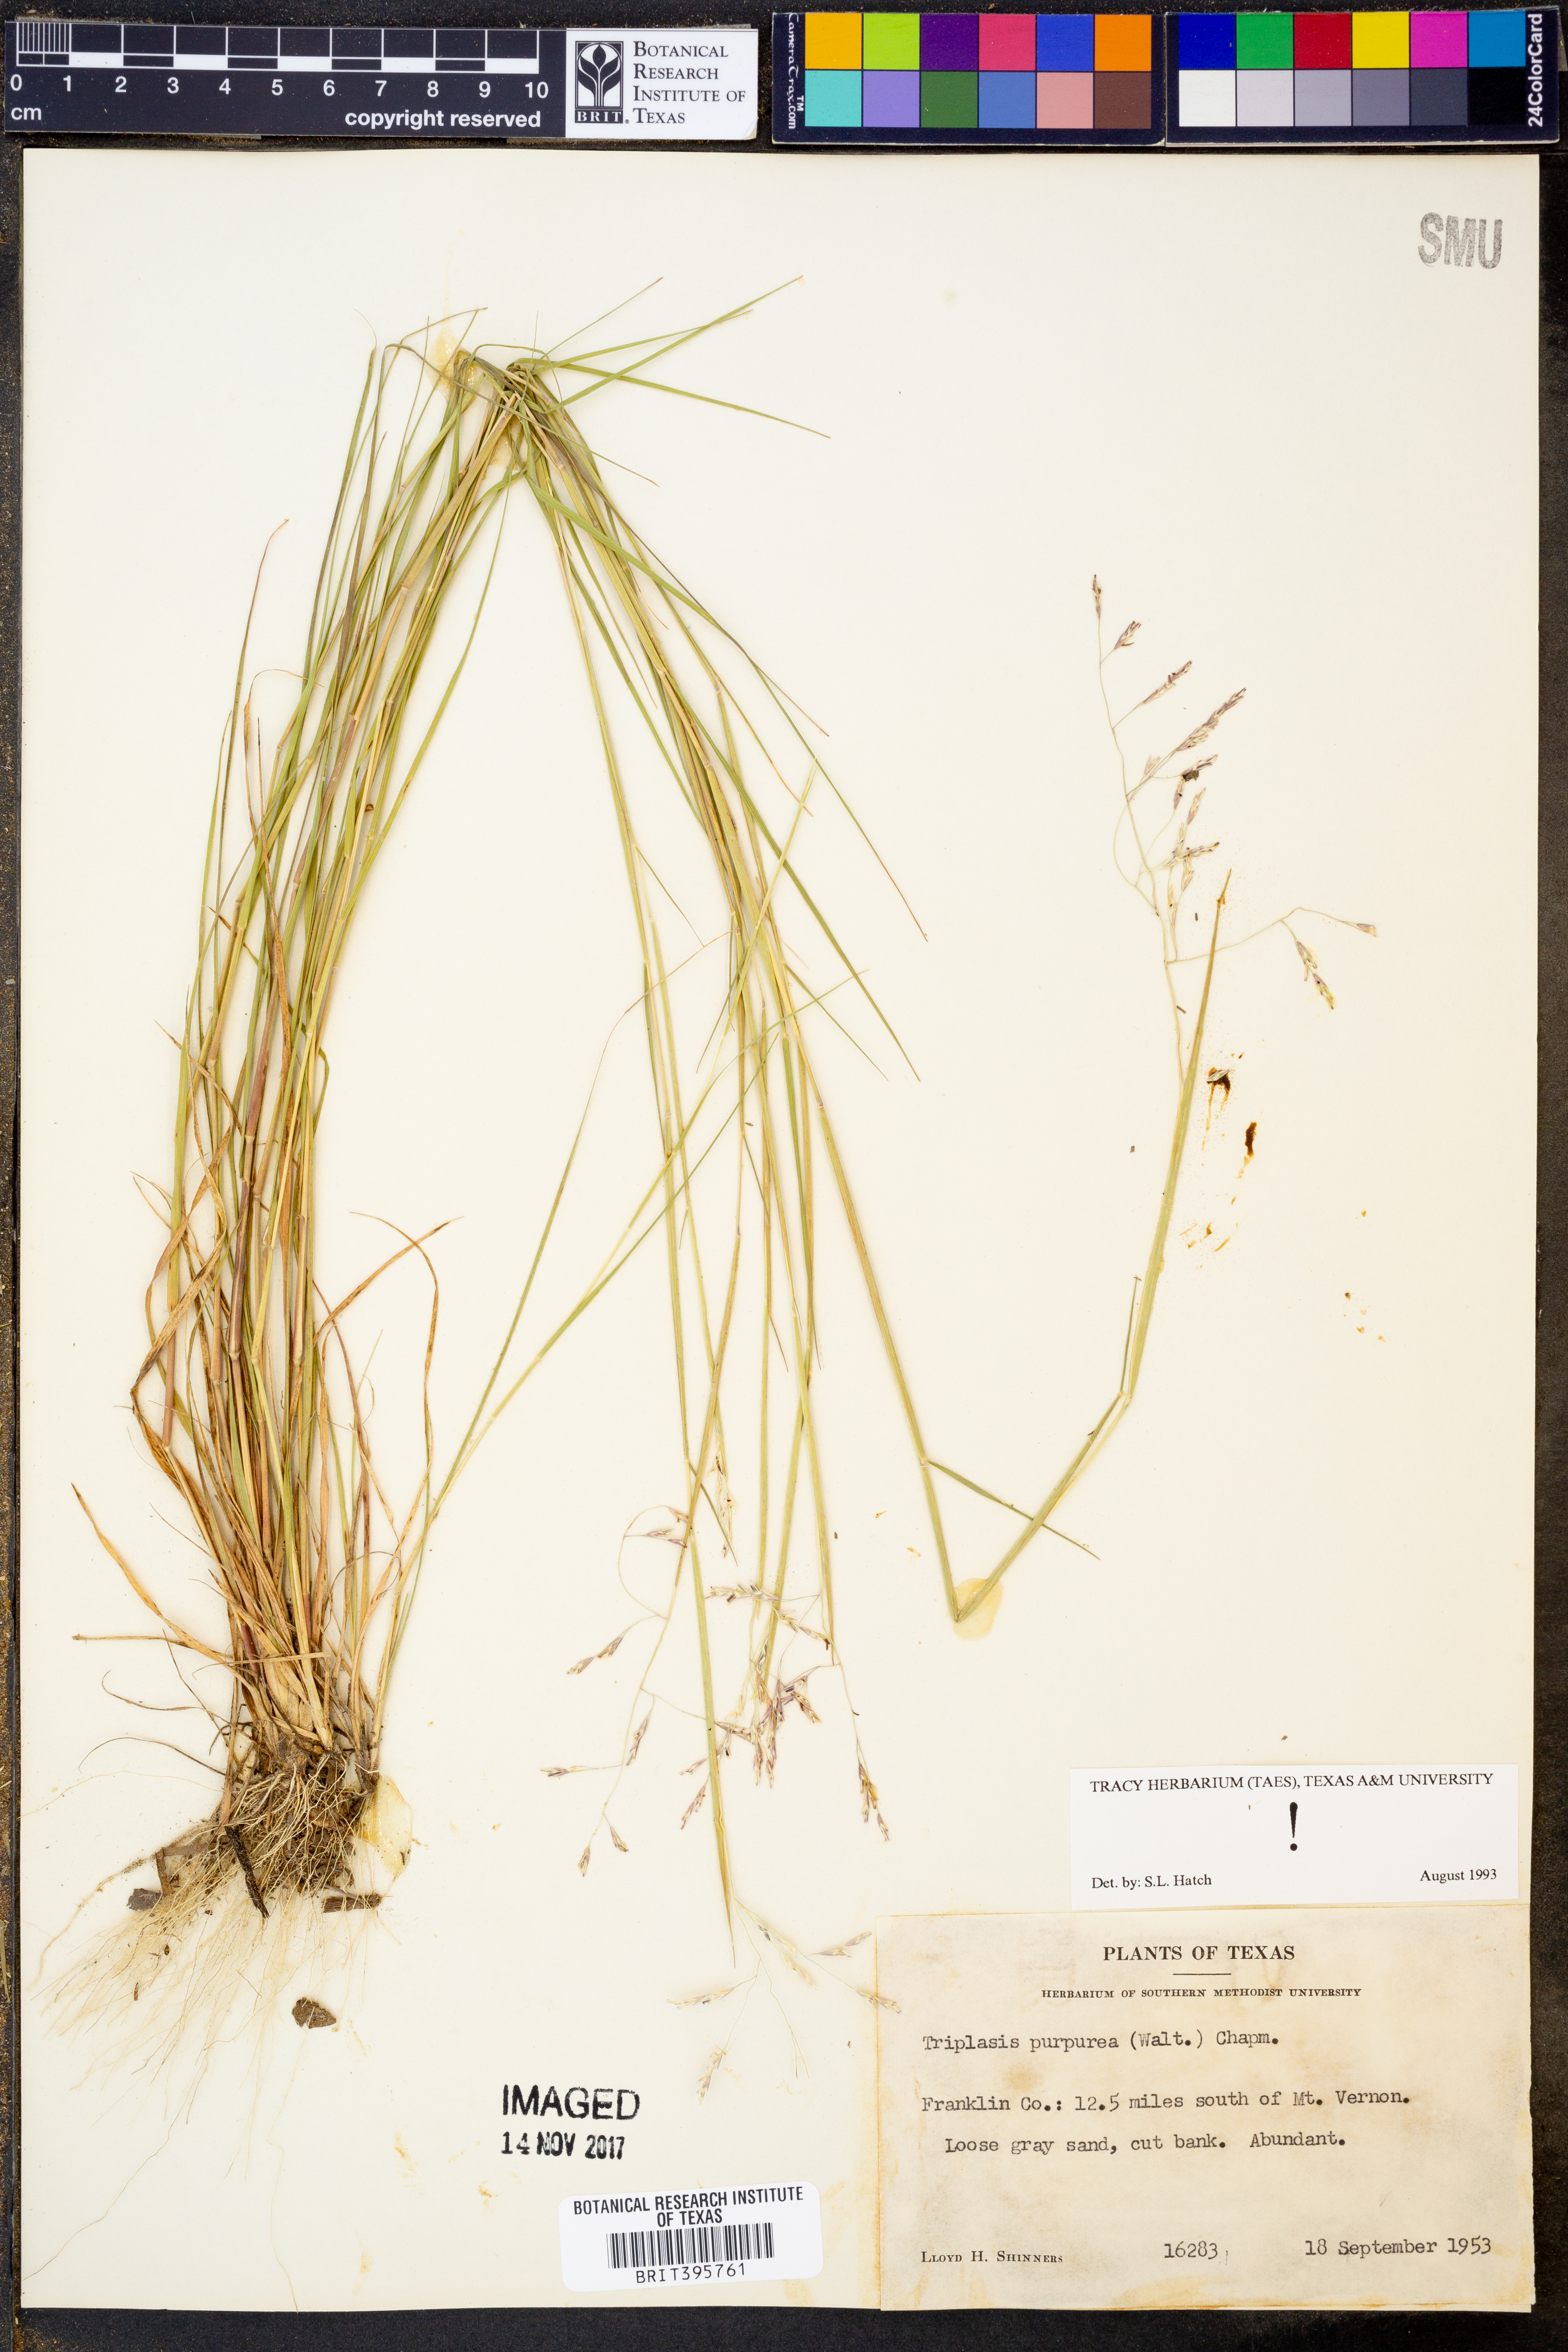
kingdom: Plantae
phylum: Tracheophyta
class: Liliopsida
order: Poales
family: Poaceae
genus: Triplasis
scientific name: Triplasis purpurea
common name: Purple sand grass
